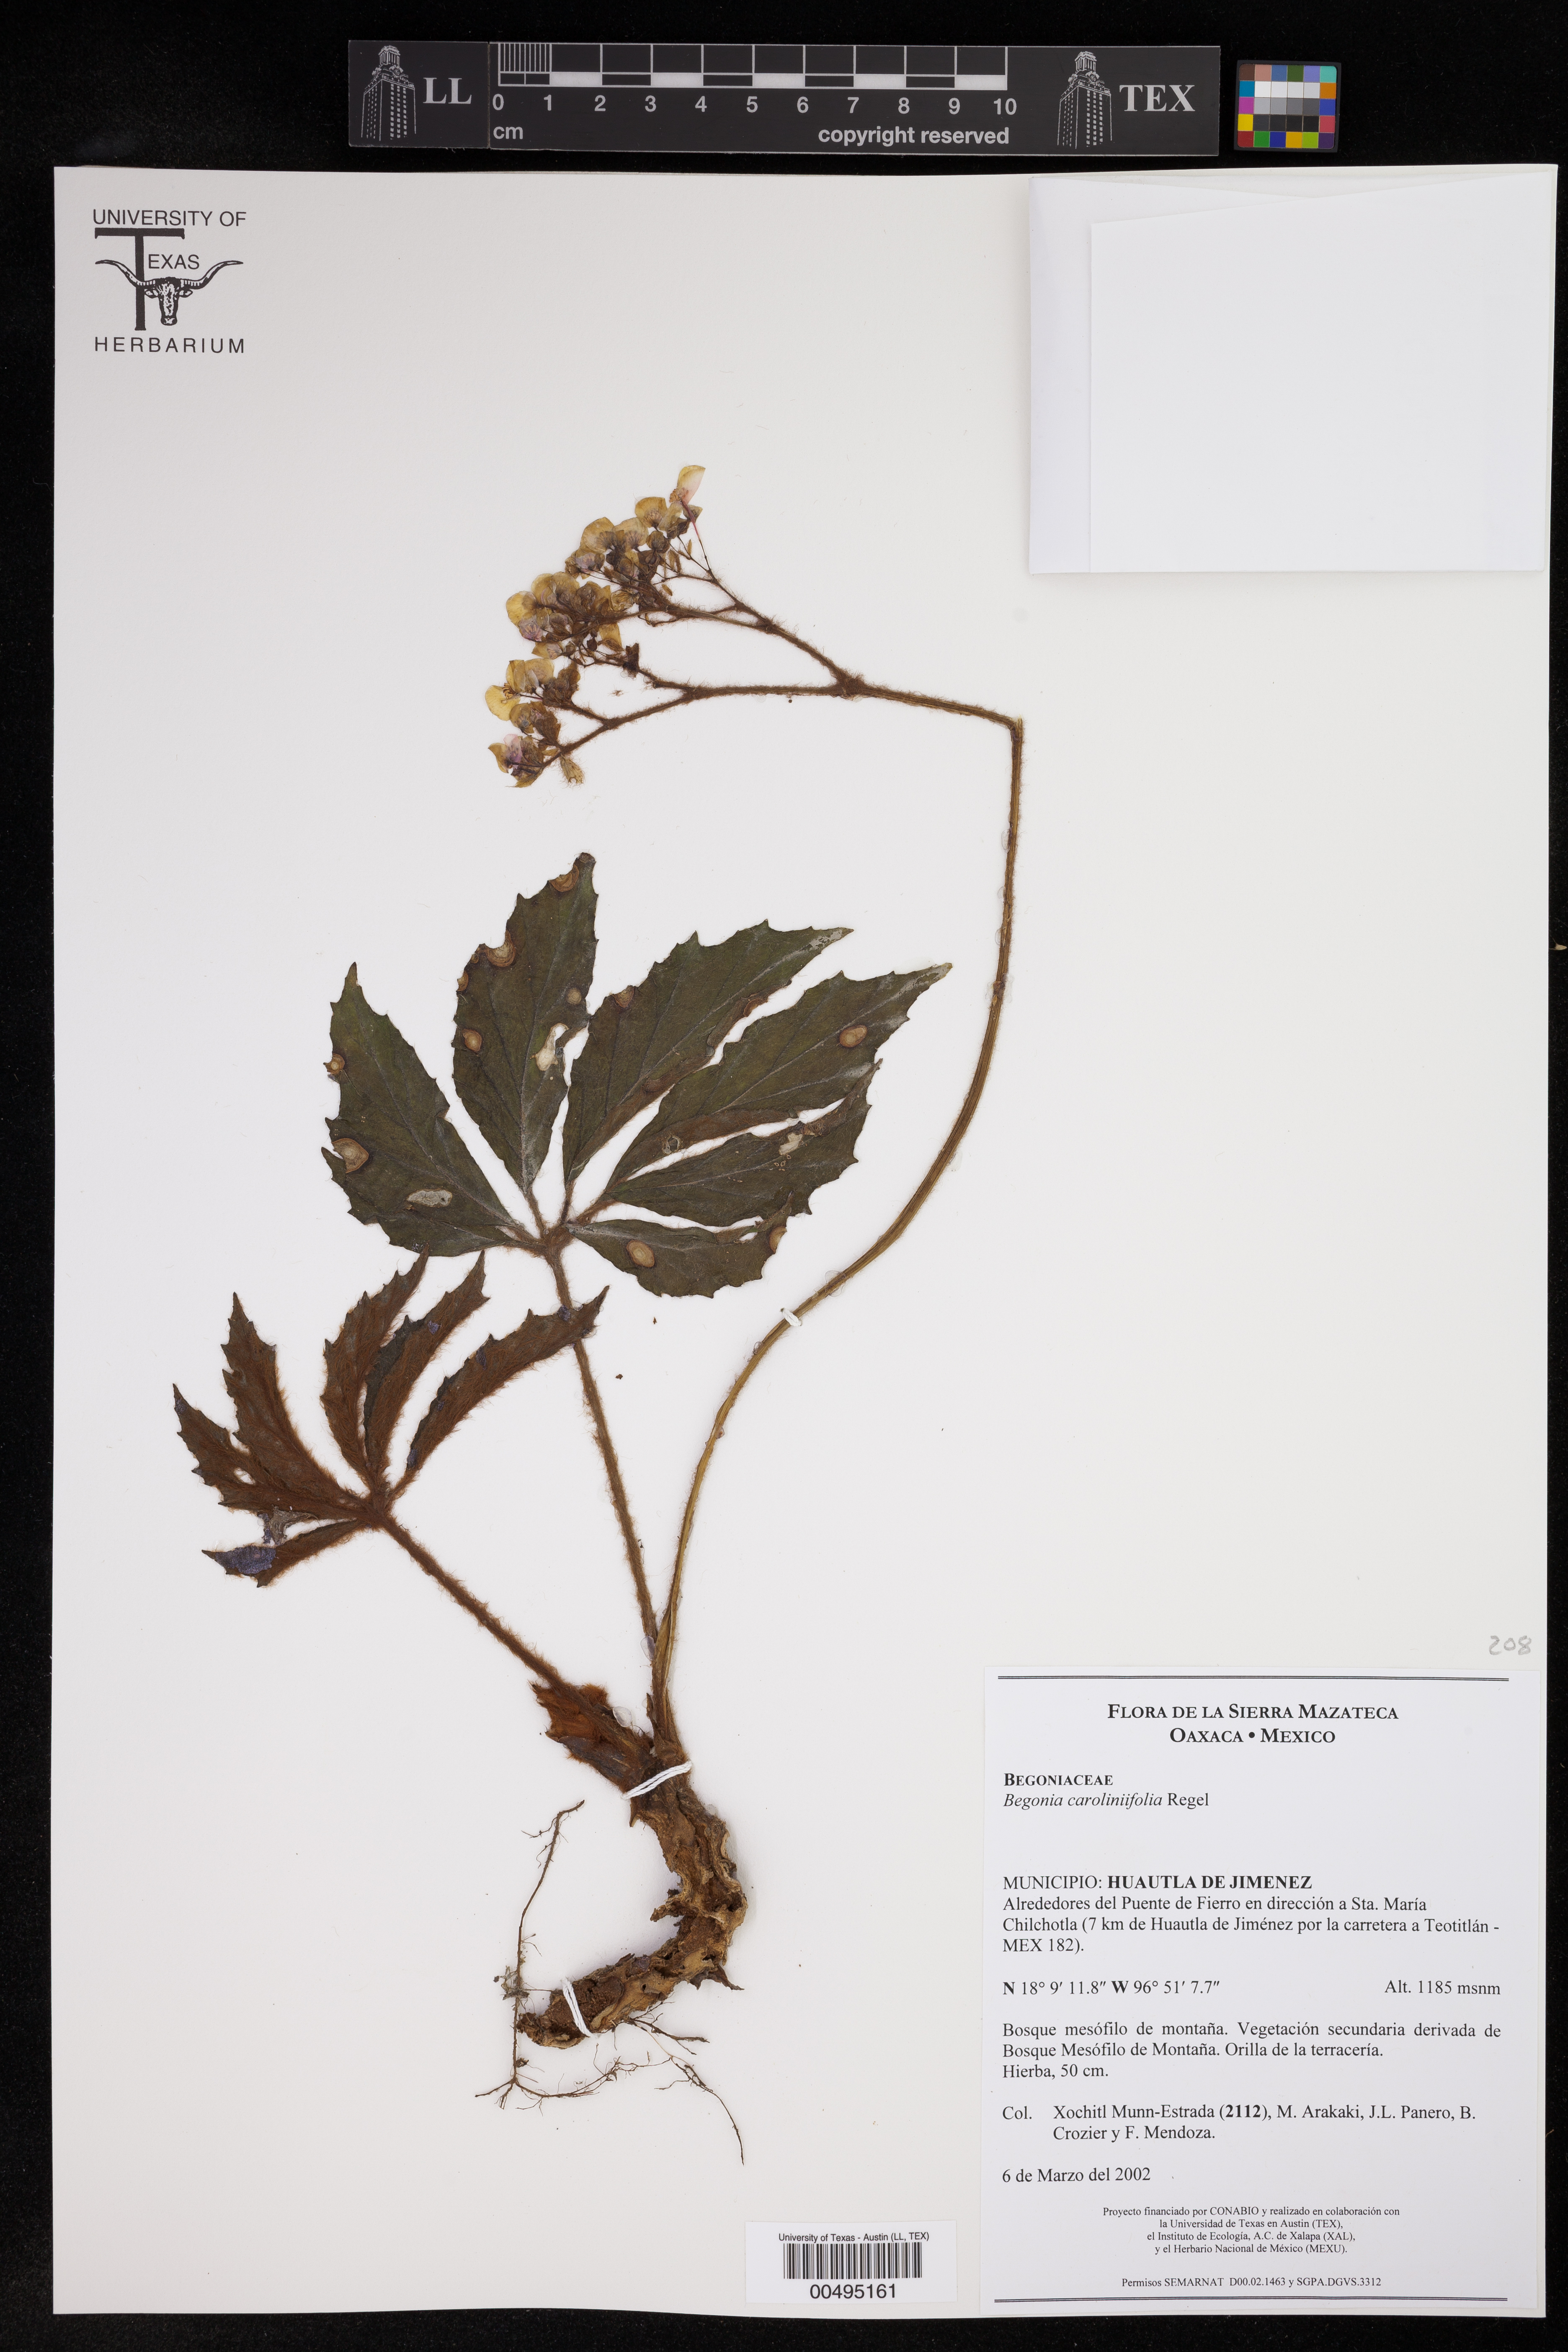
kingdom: Plantae
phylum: Tracheophyta
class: Magnoliopsida
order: Cucurbitales
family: Begoniaceae
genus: Begonia
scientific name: Begonia caroliniifolia
